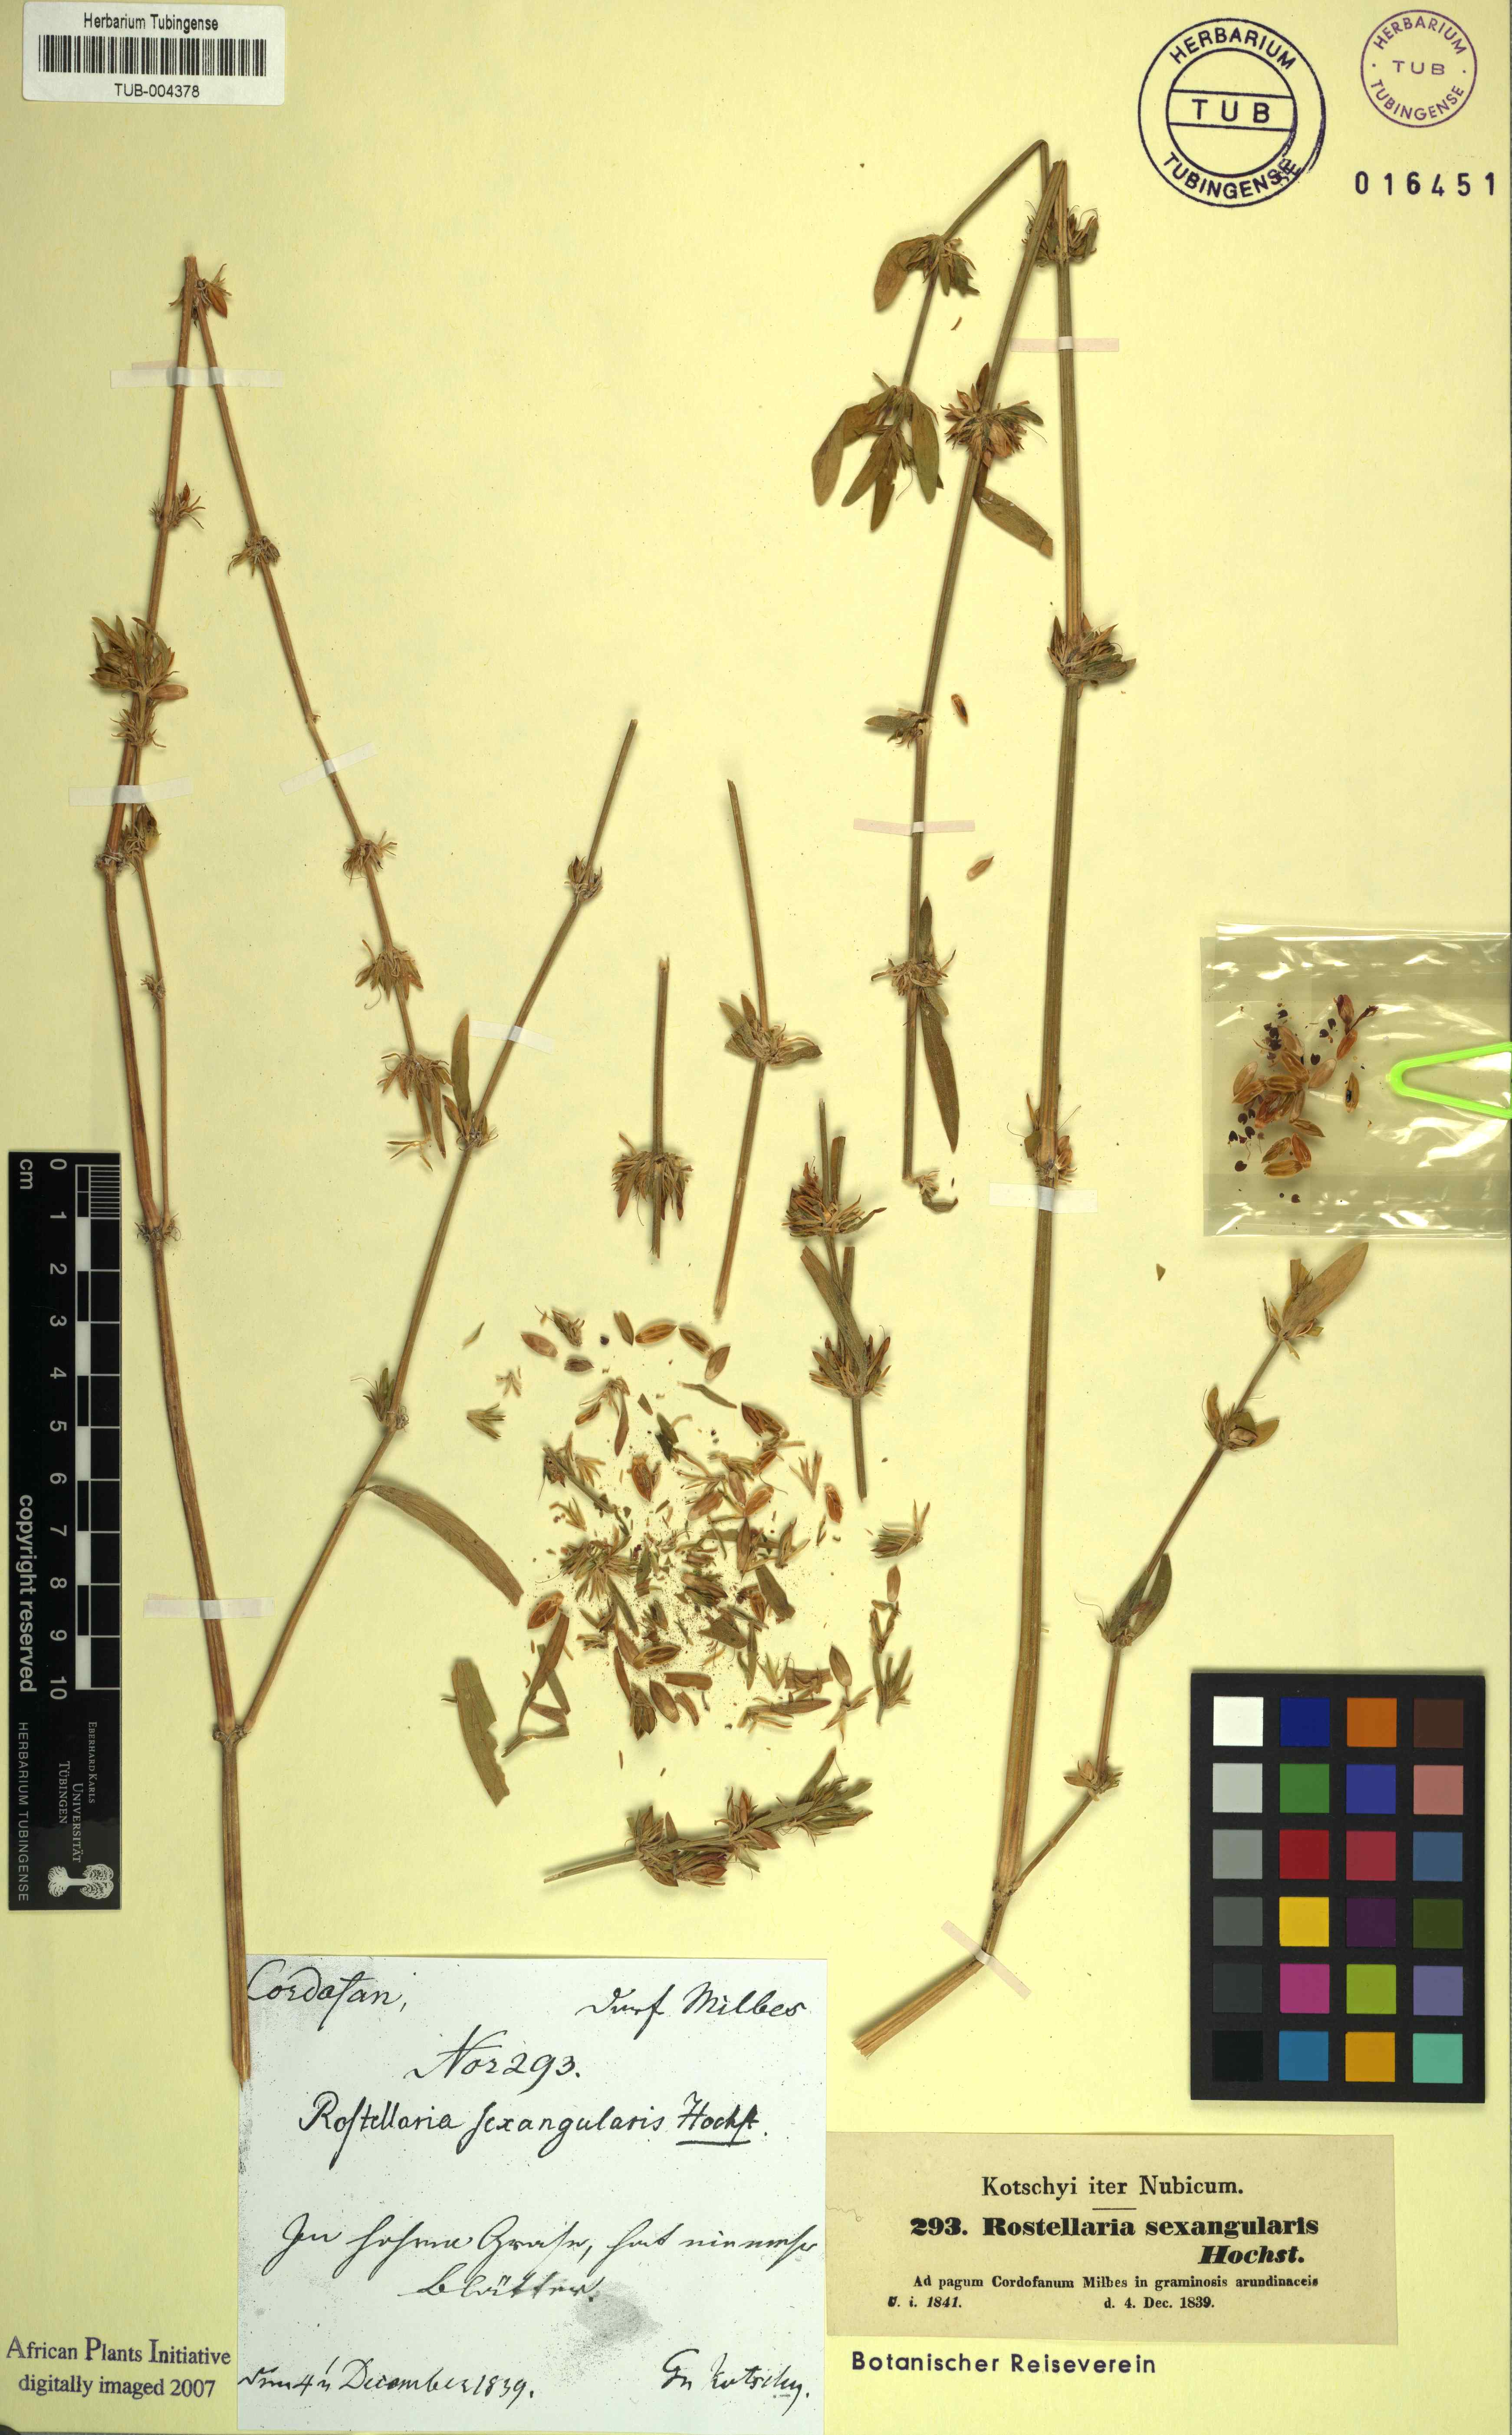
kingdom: Plantae
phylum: Tracheophyta
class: Magnoliopsida
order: Lamiales
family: Acanthaceae
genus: Dicliptera
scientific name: Dicliptera sexangularis
